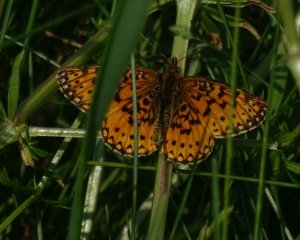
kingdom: Animalia
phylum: Arthropoda
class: Insecta
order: Lepidoptera
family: Nymphalidae
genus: Boloria
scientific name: Boloria selene
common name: Silver-bordered Fritillary
